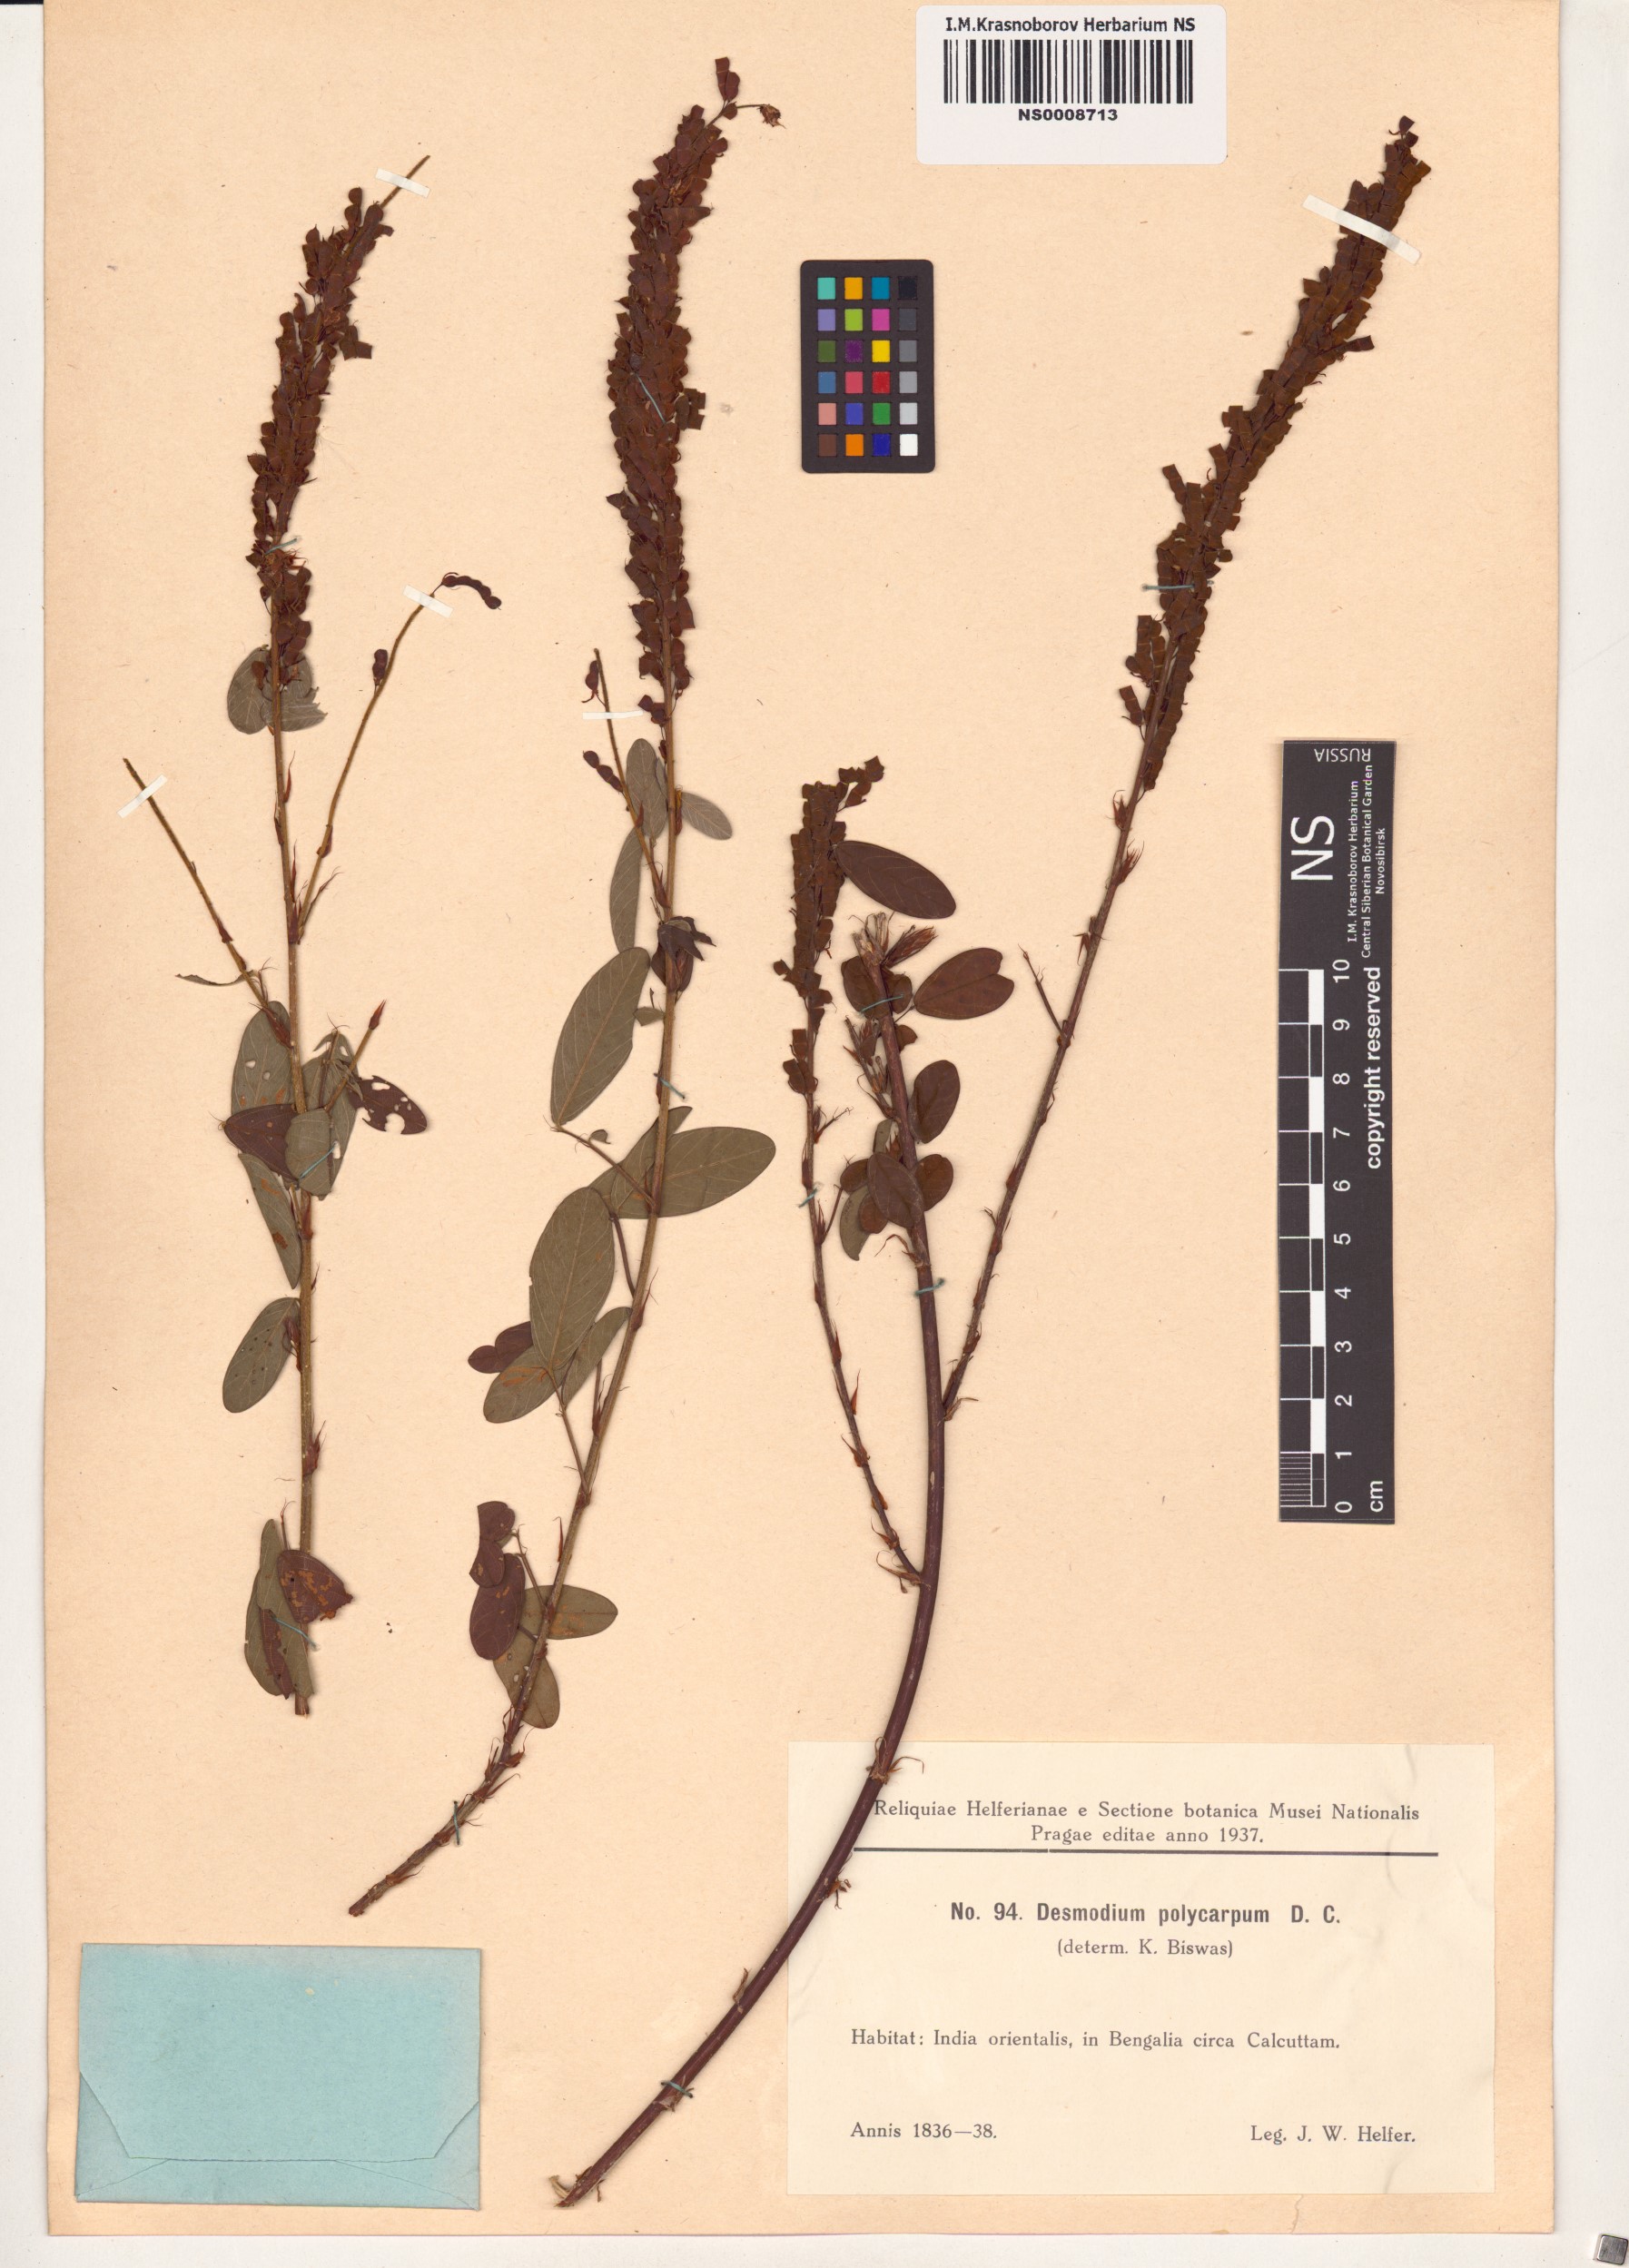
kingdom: Plantae
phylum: Tracheophyta
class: Magnoliopsida
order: Fabales
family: Fabaceae
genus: Grona
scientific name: Grona heterocarpos
